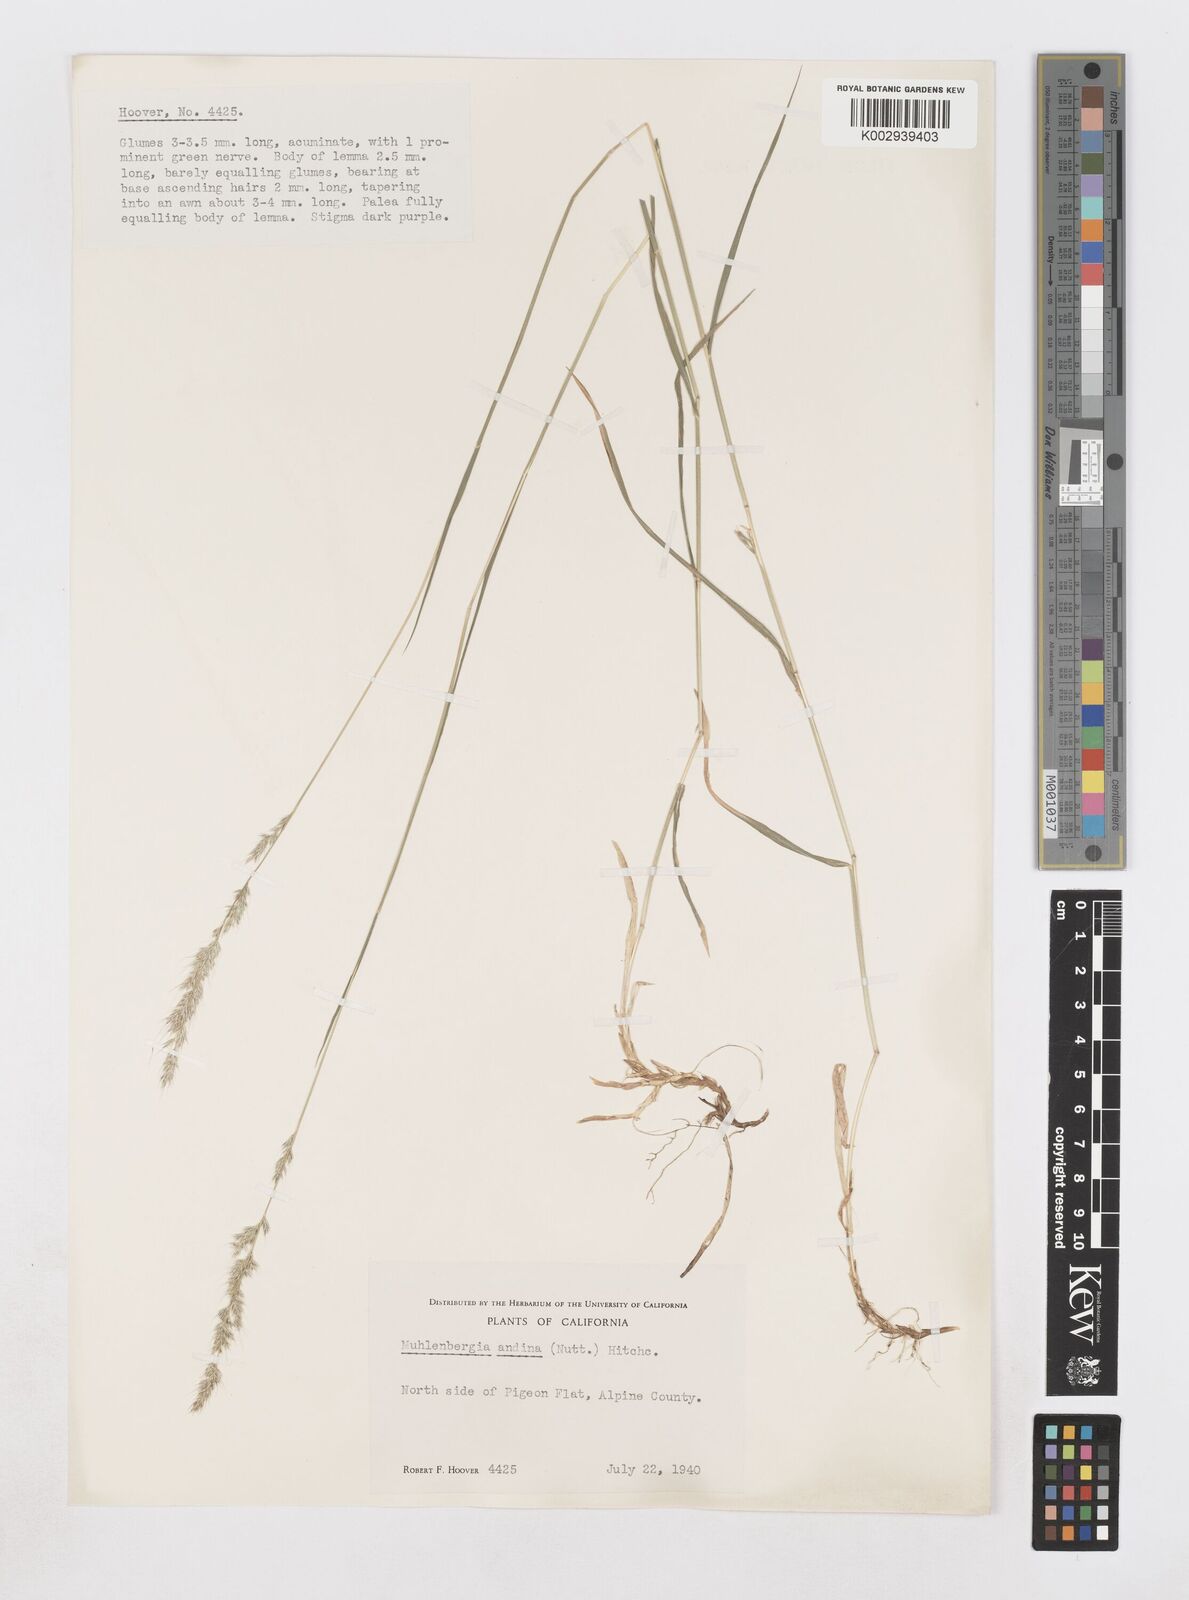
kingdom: Plantae
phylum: Tracheophyta
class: Liliopsida
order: Poales
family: Poaceae
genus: Muhlenbergia
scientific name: Muhlenbergia andina
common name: Foxtail muhly
